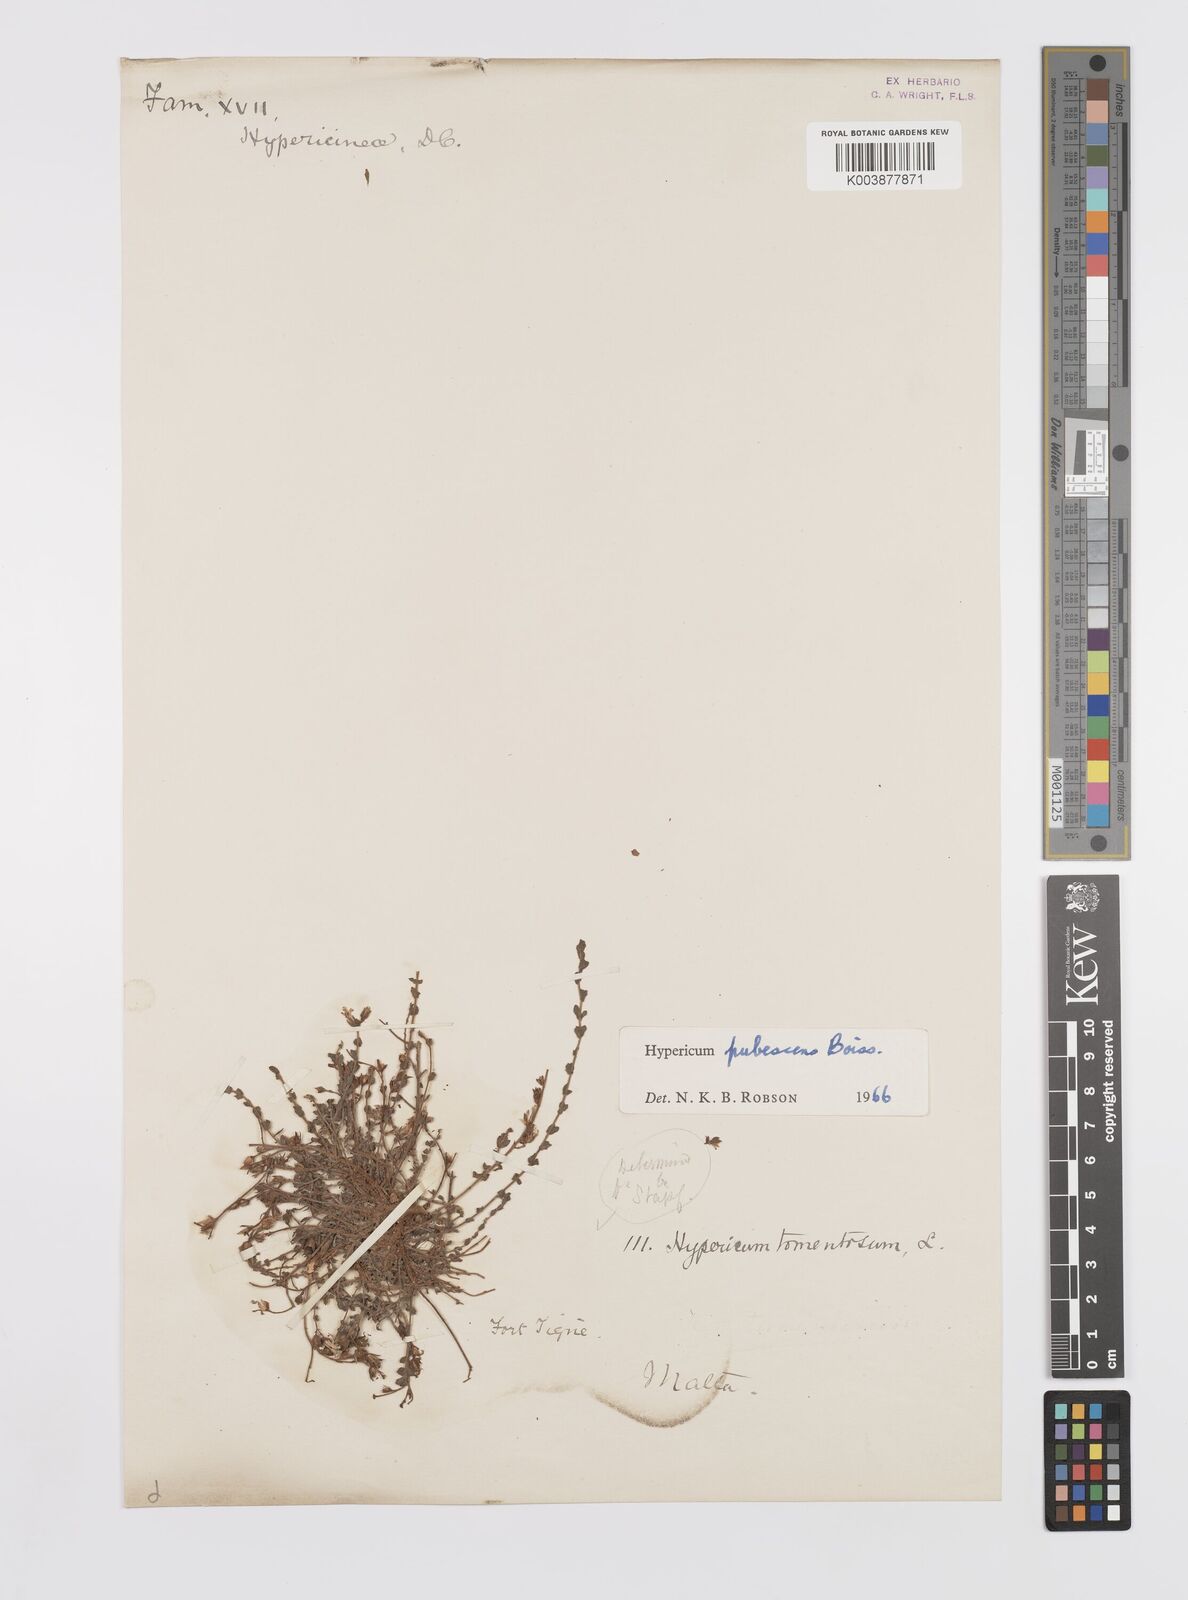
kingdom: Plantae
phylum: Tracheophyta
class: Magnoliopsida
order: Malpighiales
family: Hypericaceae
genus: Hypericum
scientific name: Hypericum pubescens
